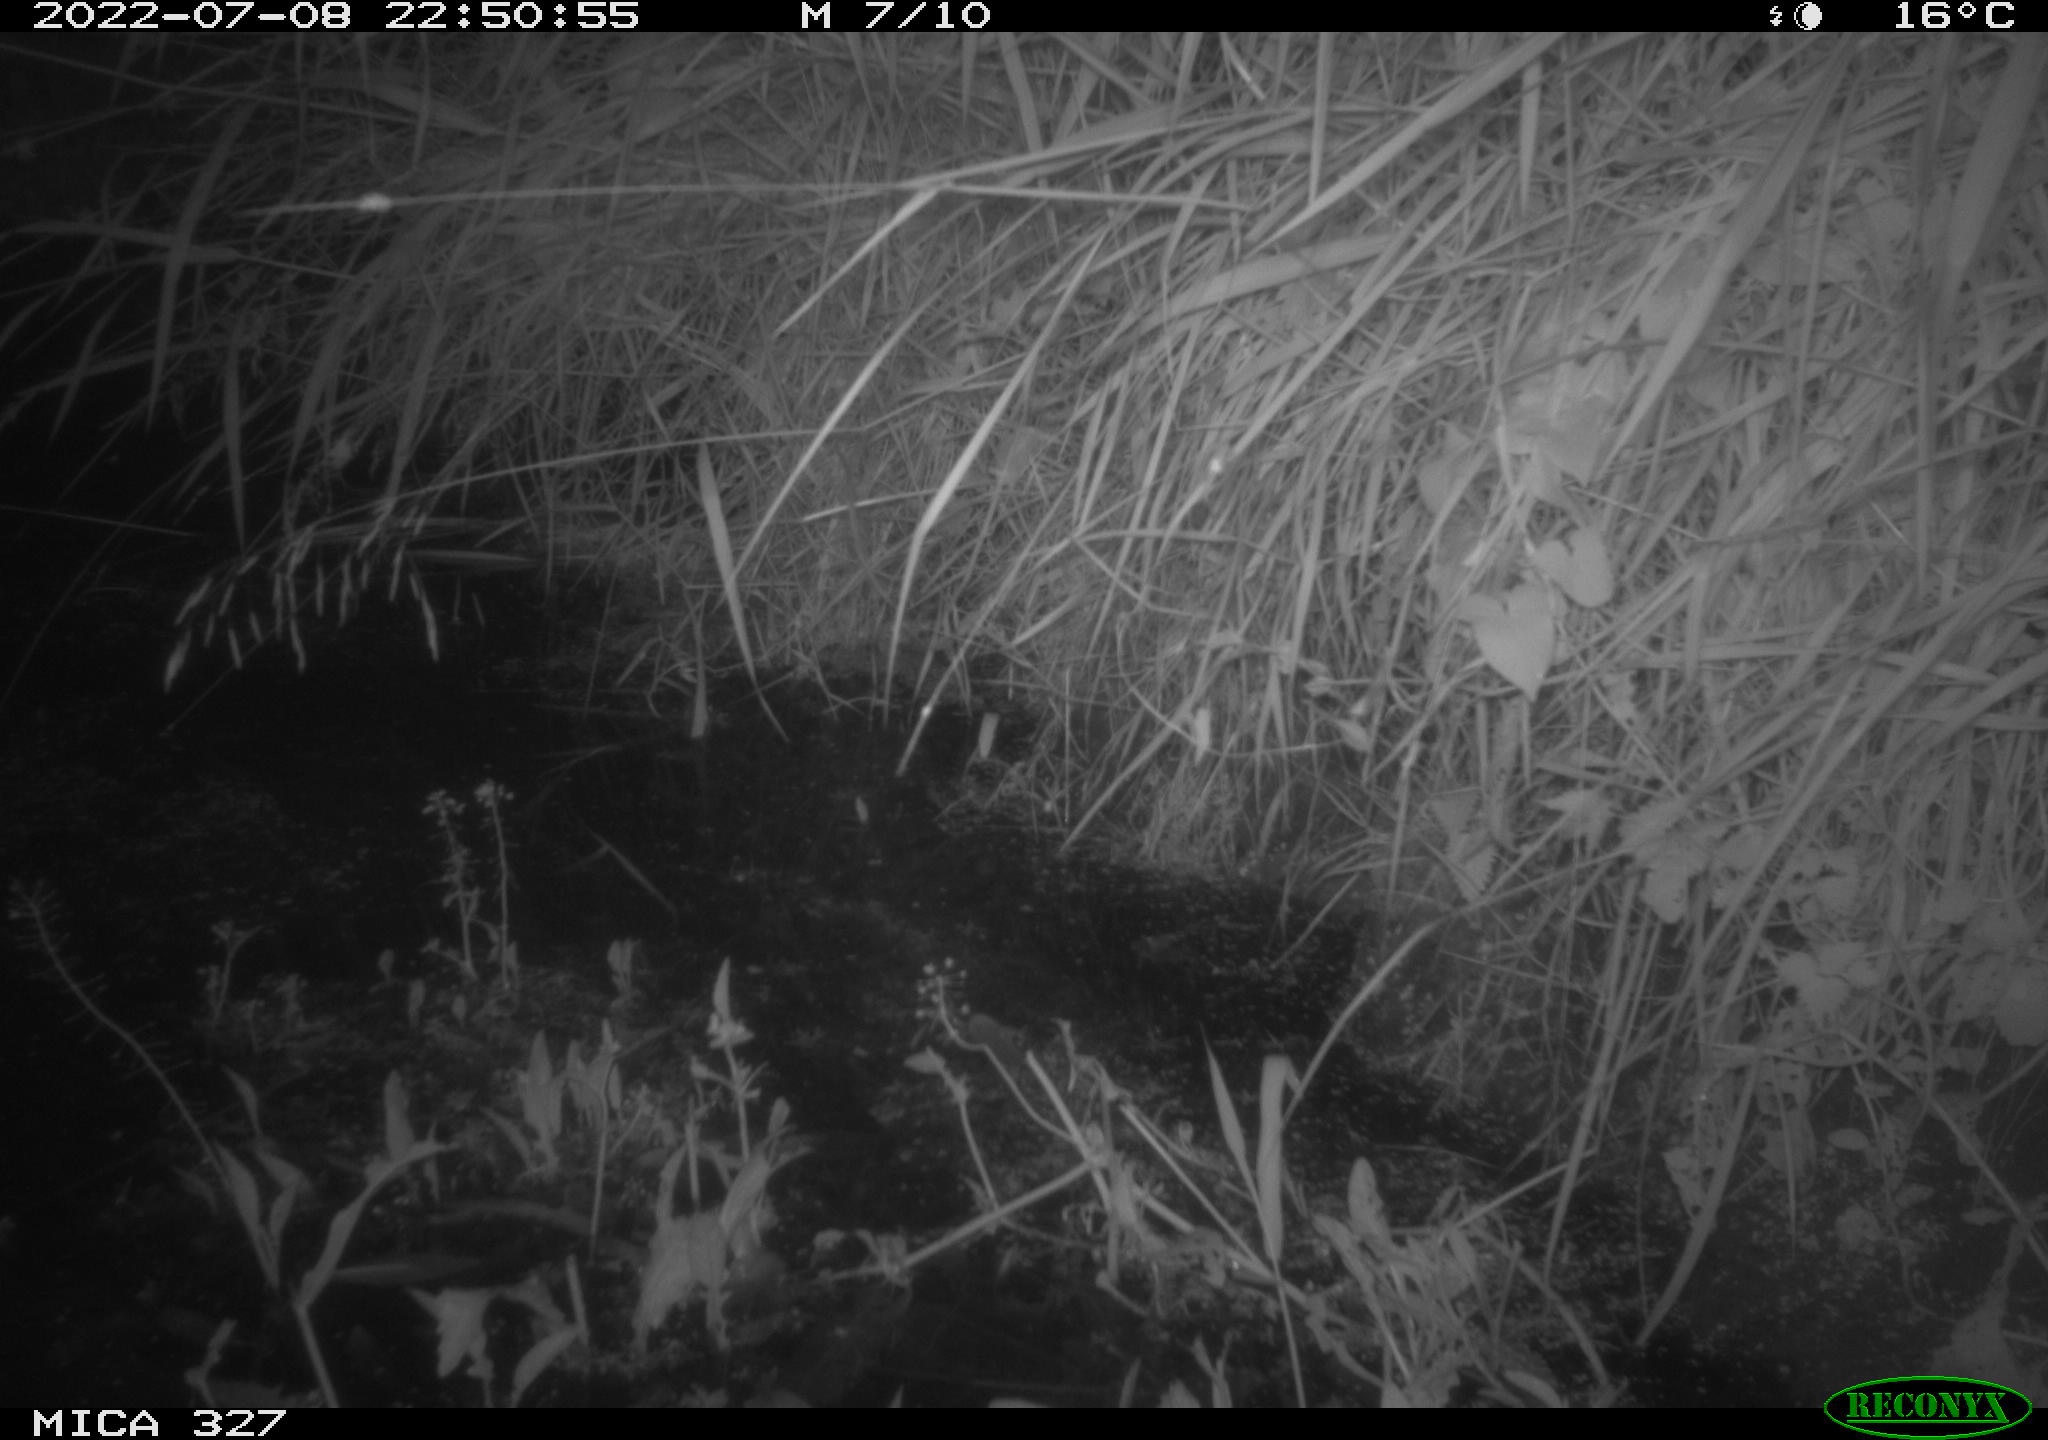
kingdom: Animalia
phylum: Chordata
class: Mammalia
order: Rodentia
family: Muridae
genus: Rattus
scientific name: Rattus norvegicus
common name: Brown rat
